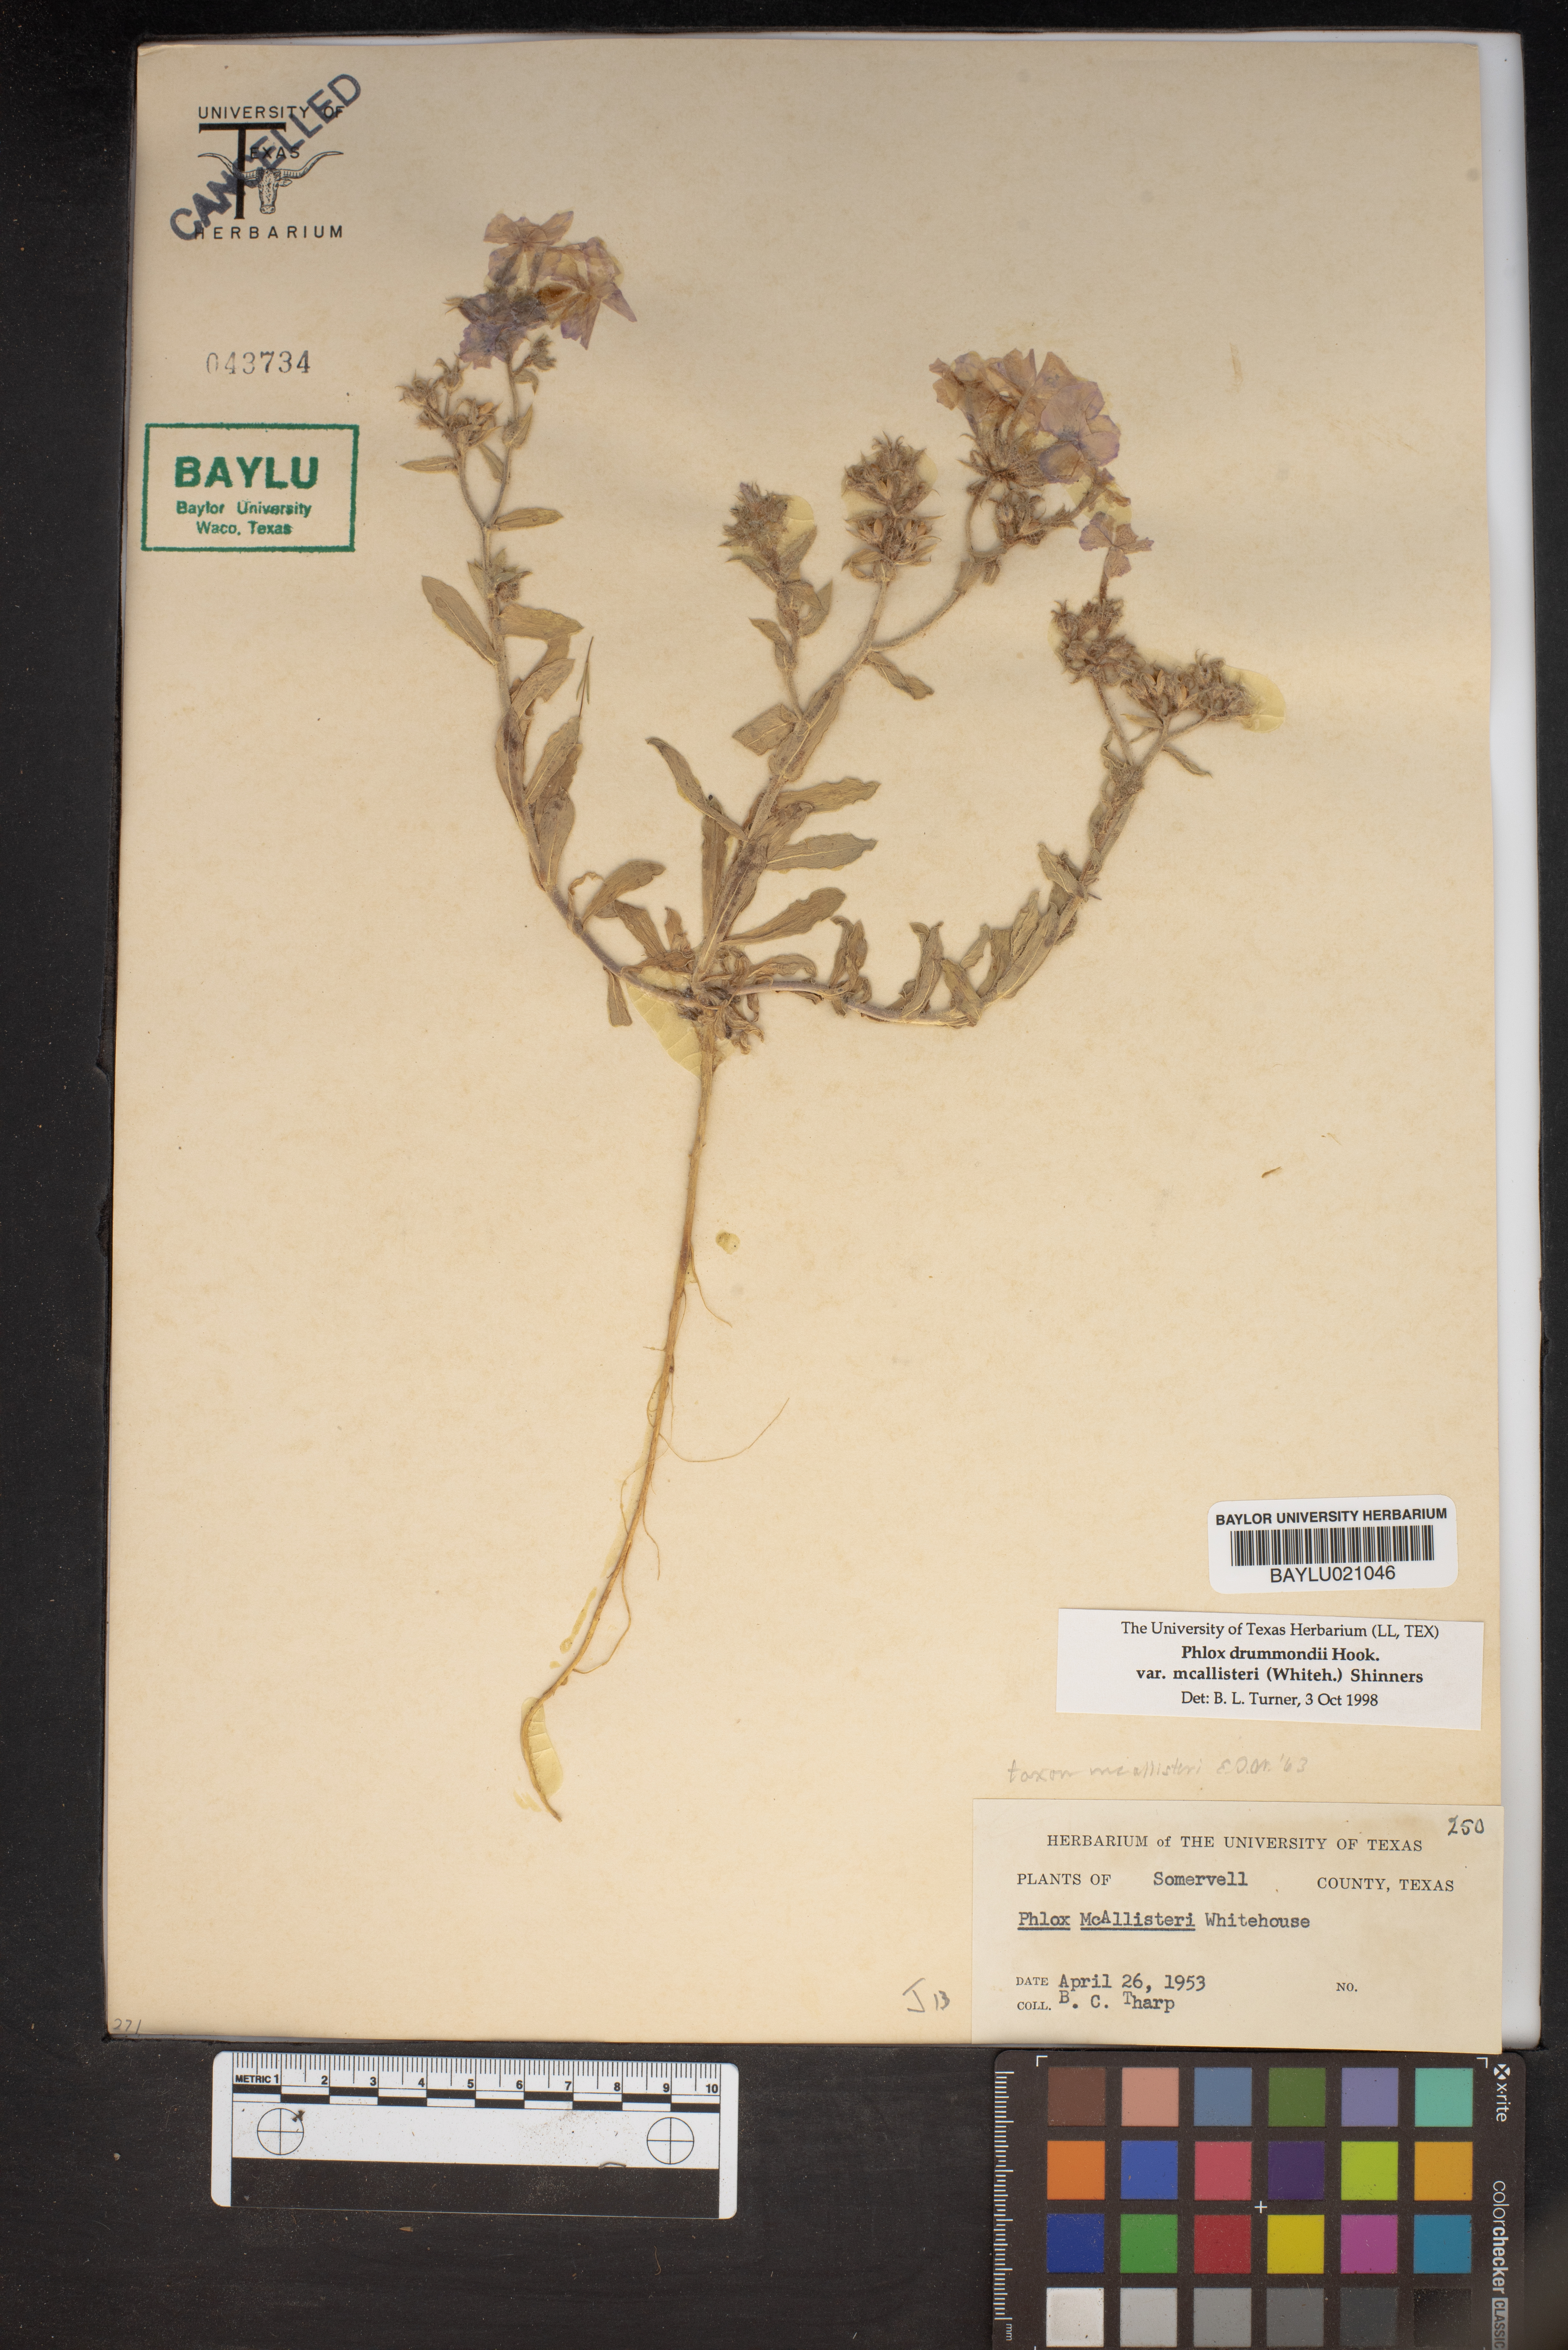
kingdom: Plantae
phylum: Tracheophyta
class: Magnoliopsida
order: Ericales
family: Polemoniaceae
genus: Phlox
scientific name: Phlox drummondii
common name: Drummond's phlox
